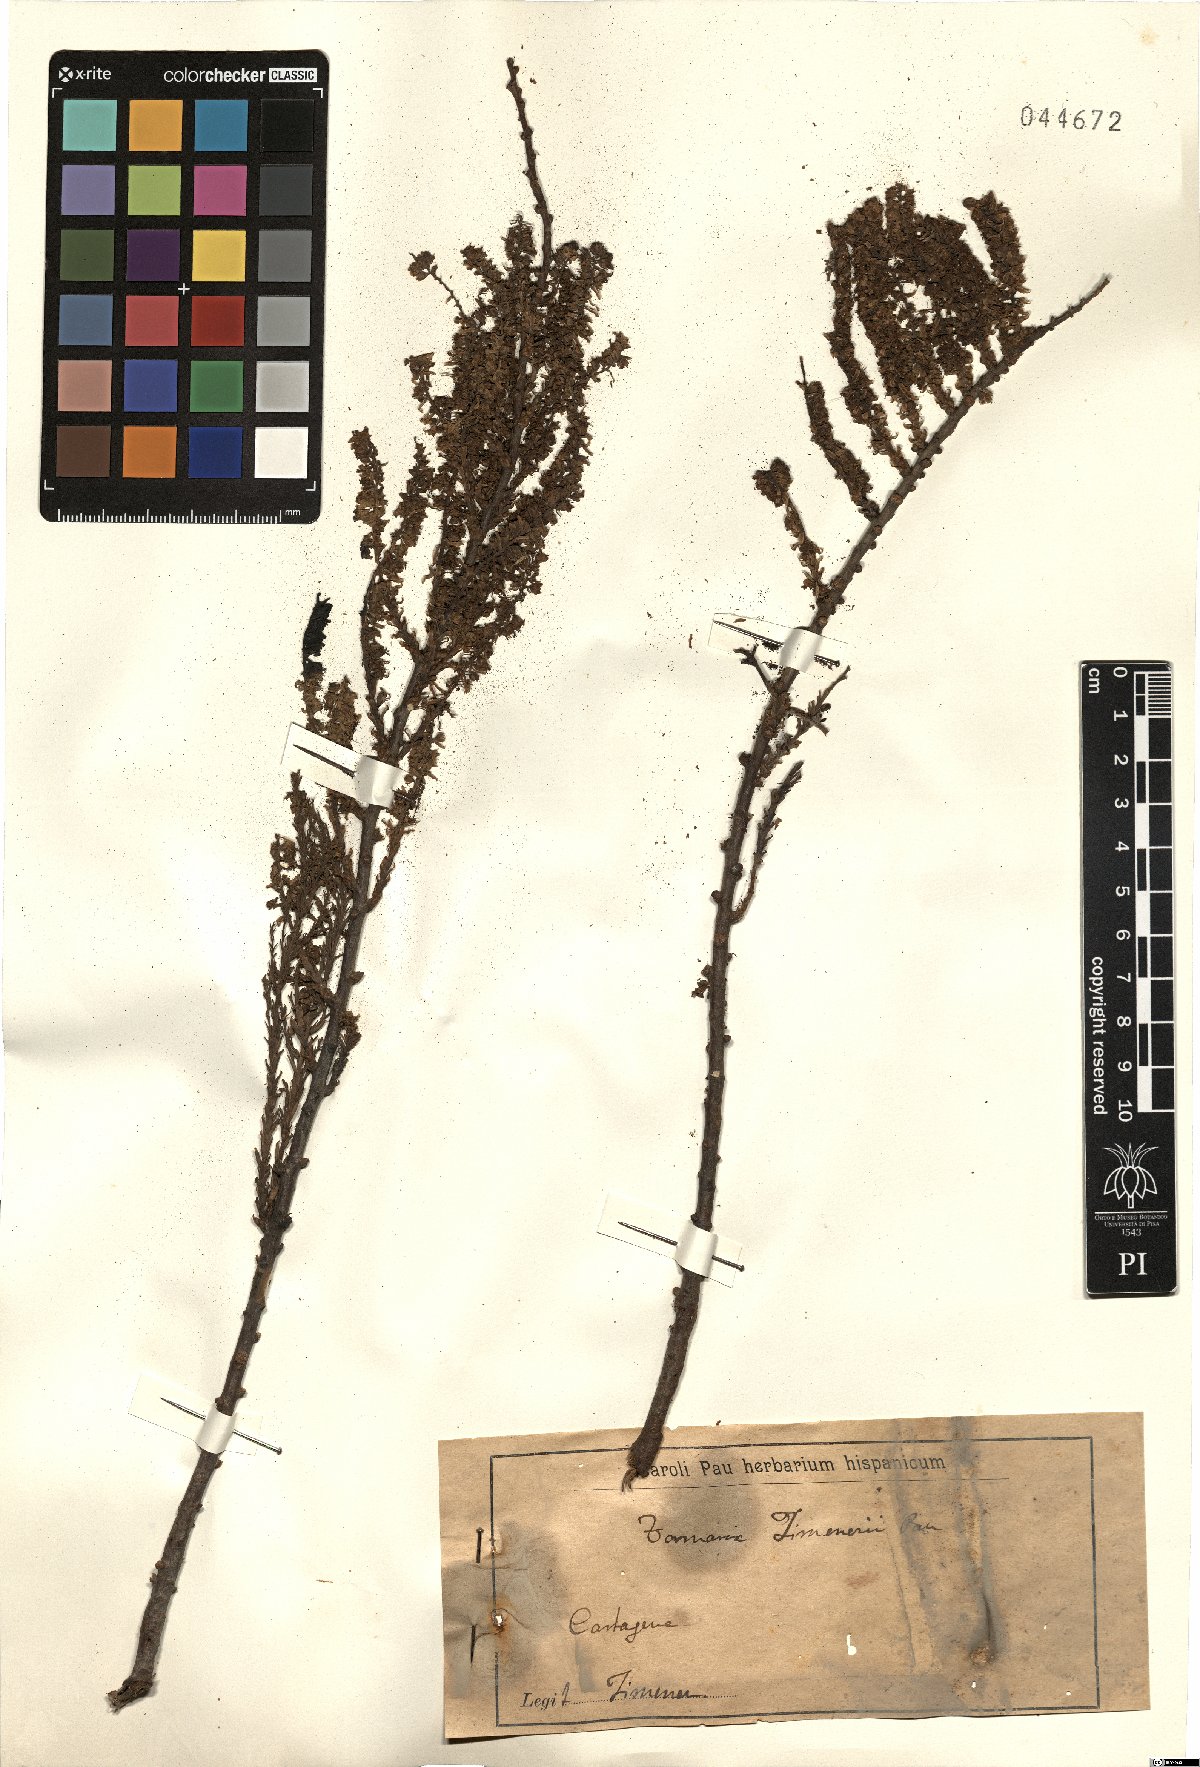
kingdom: Plantae
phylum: Tracheophyta
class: Magnoliopsida
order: Caryophyllales
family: Tamaricaceae
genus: Tamarix
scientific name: Tamarix boveana
